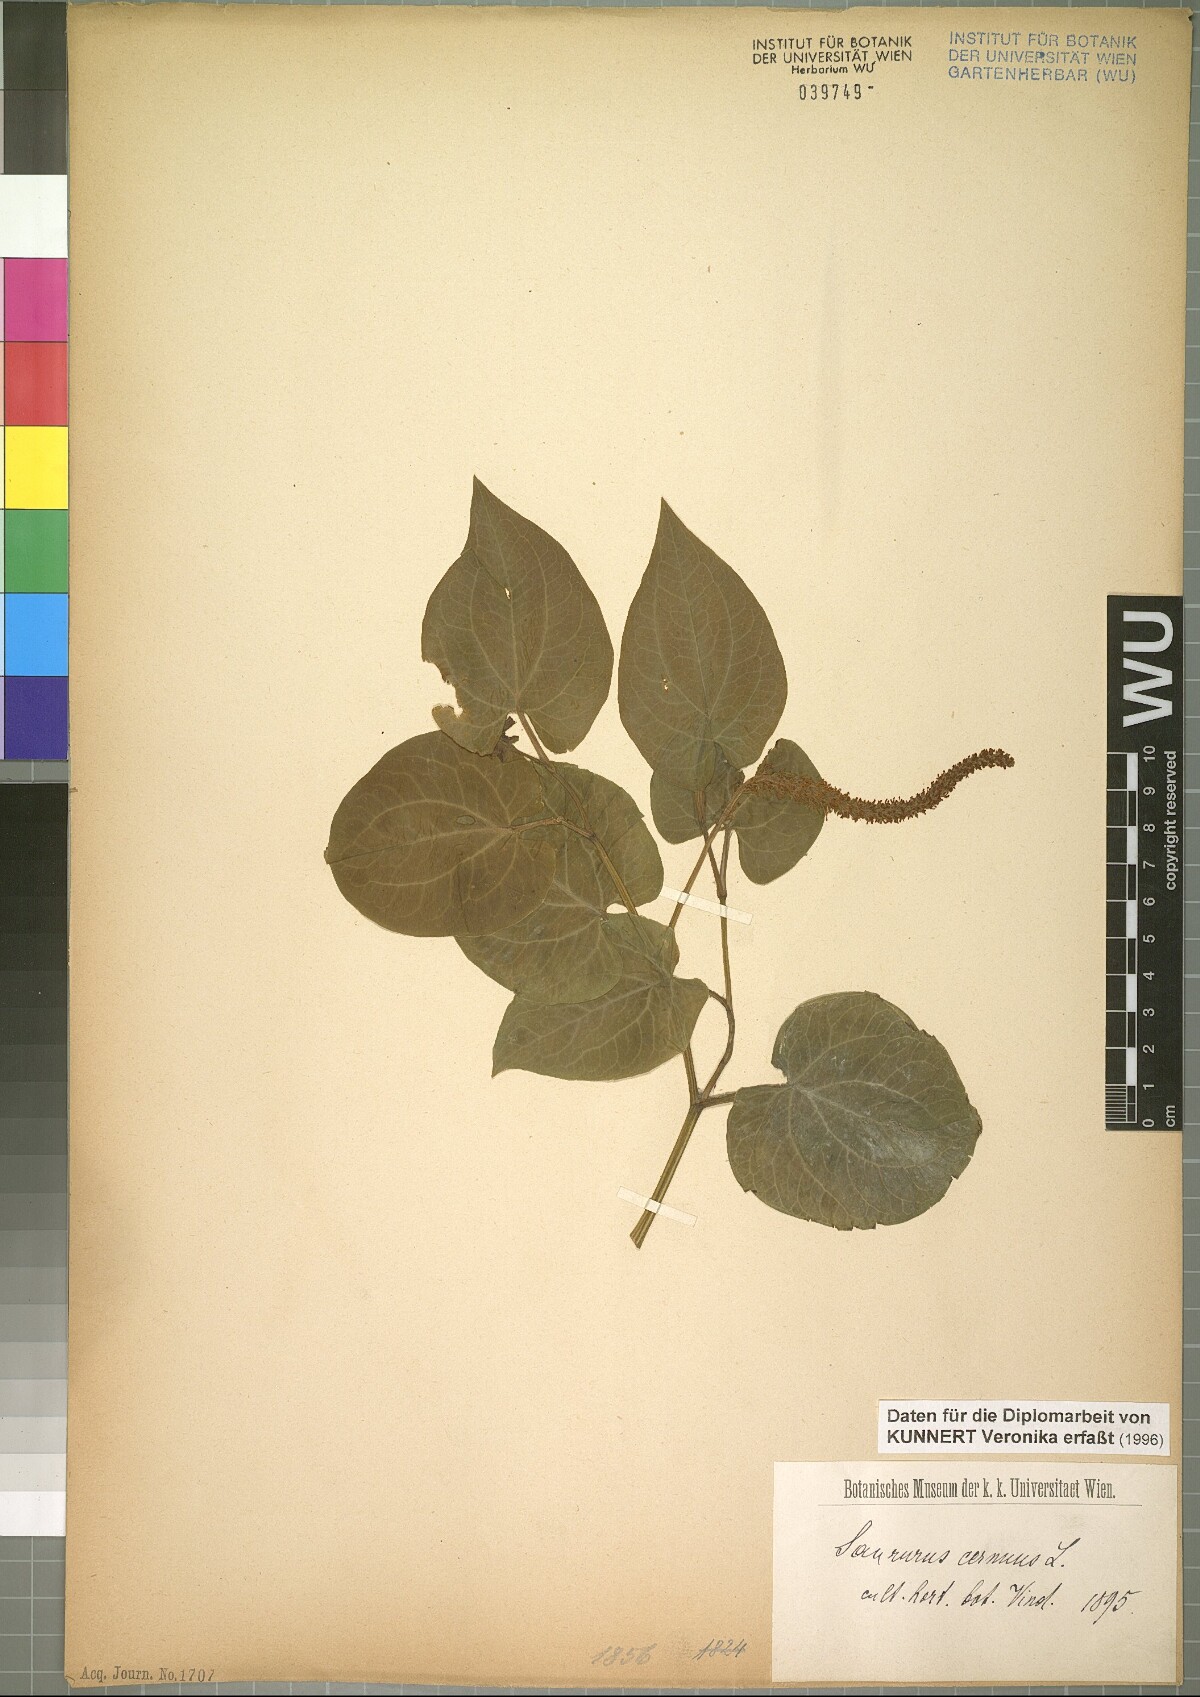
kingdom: Plantae
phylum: Tracheophyta
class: Magnoliopsida
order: Piperales
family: Saururaceae
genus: Saururus
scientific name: Saururus cernuus
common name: Lizard's-tail
